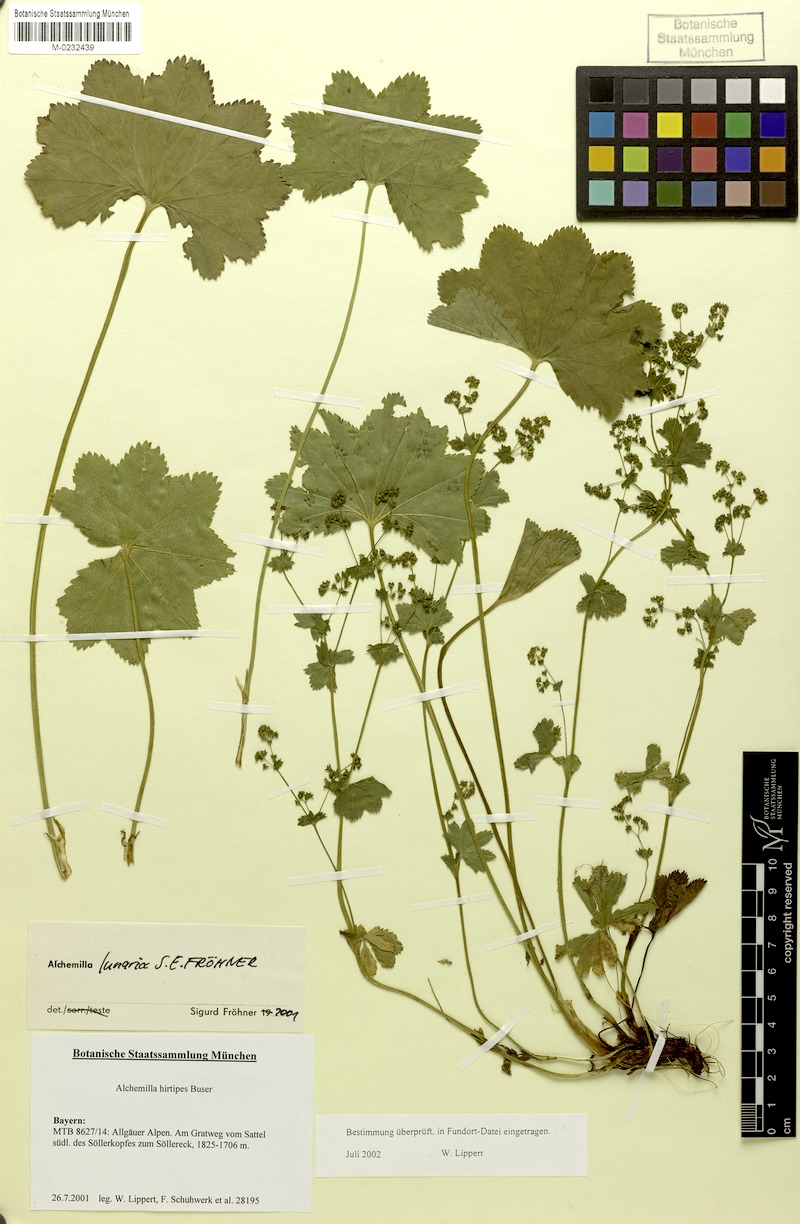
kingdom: Plantae
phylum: Tracheophyta
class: Magnoliopsida
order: Rosales
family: Rosaceae
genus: Alchemilla
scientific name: Alchemilla lunaria
